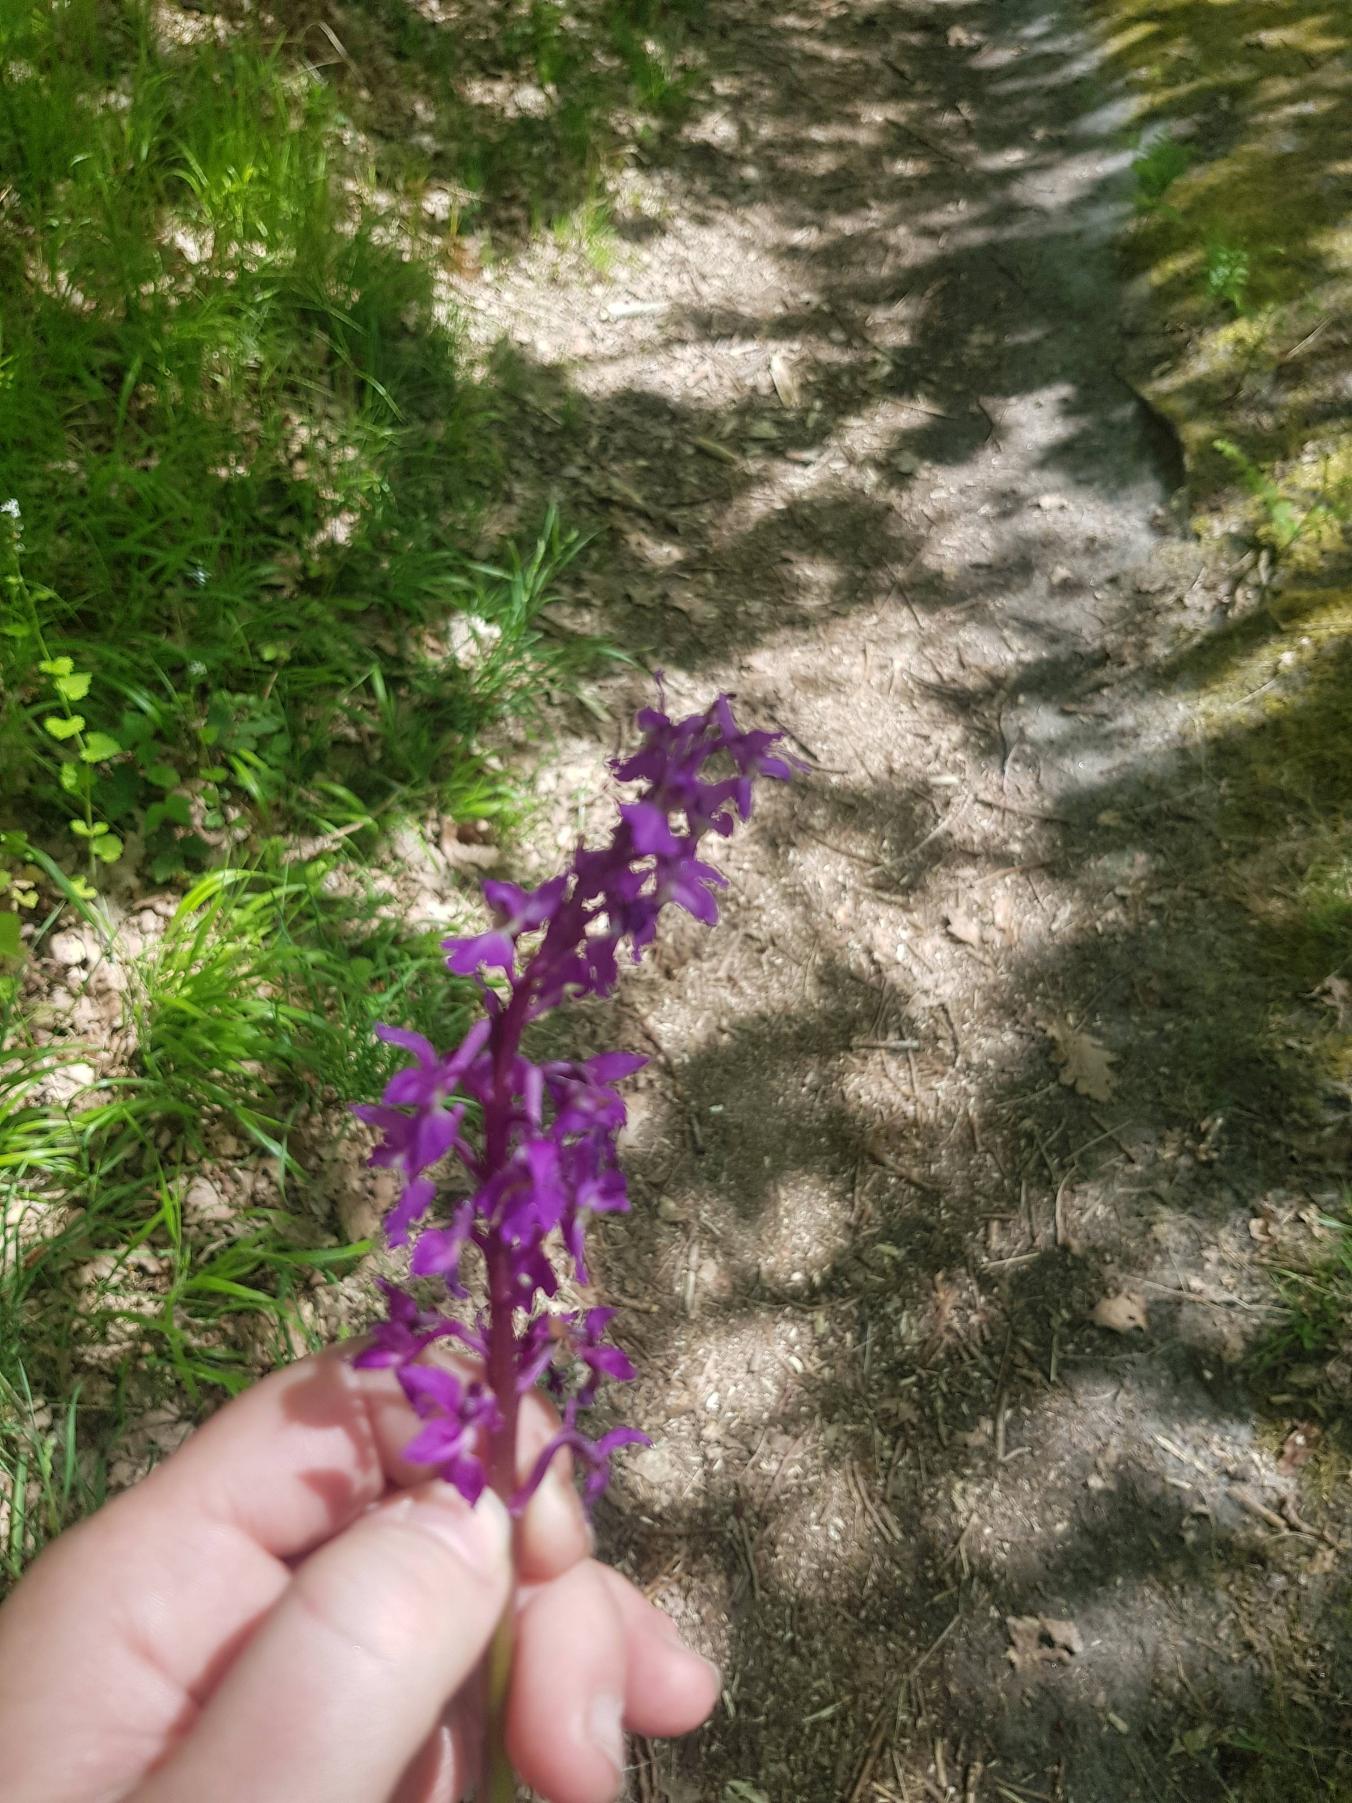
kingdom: Plantae
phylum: Tracheophyta
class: Liliopsida
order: Asparagales
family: Orchidaceae
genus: Orchis
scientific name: Orchis mascula
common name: Tyndakset gøgeurt
